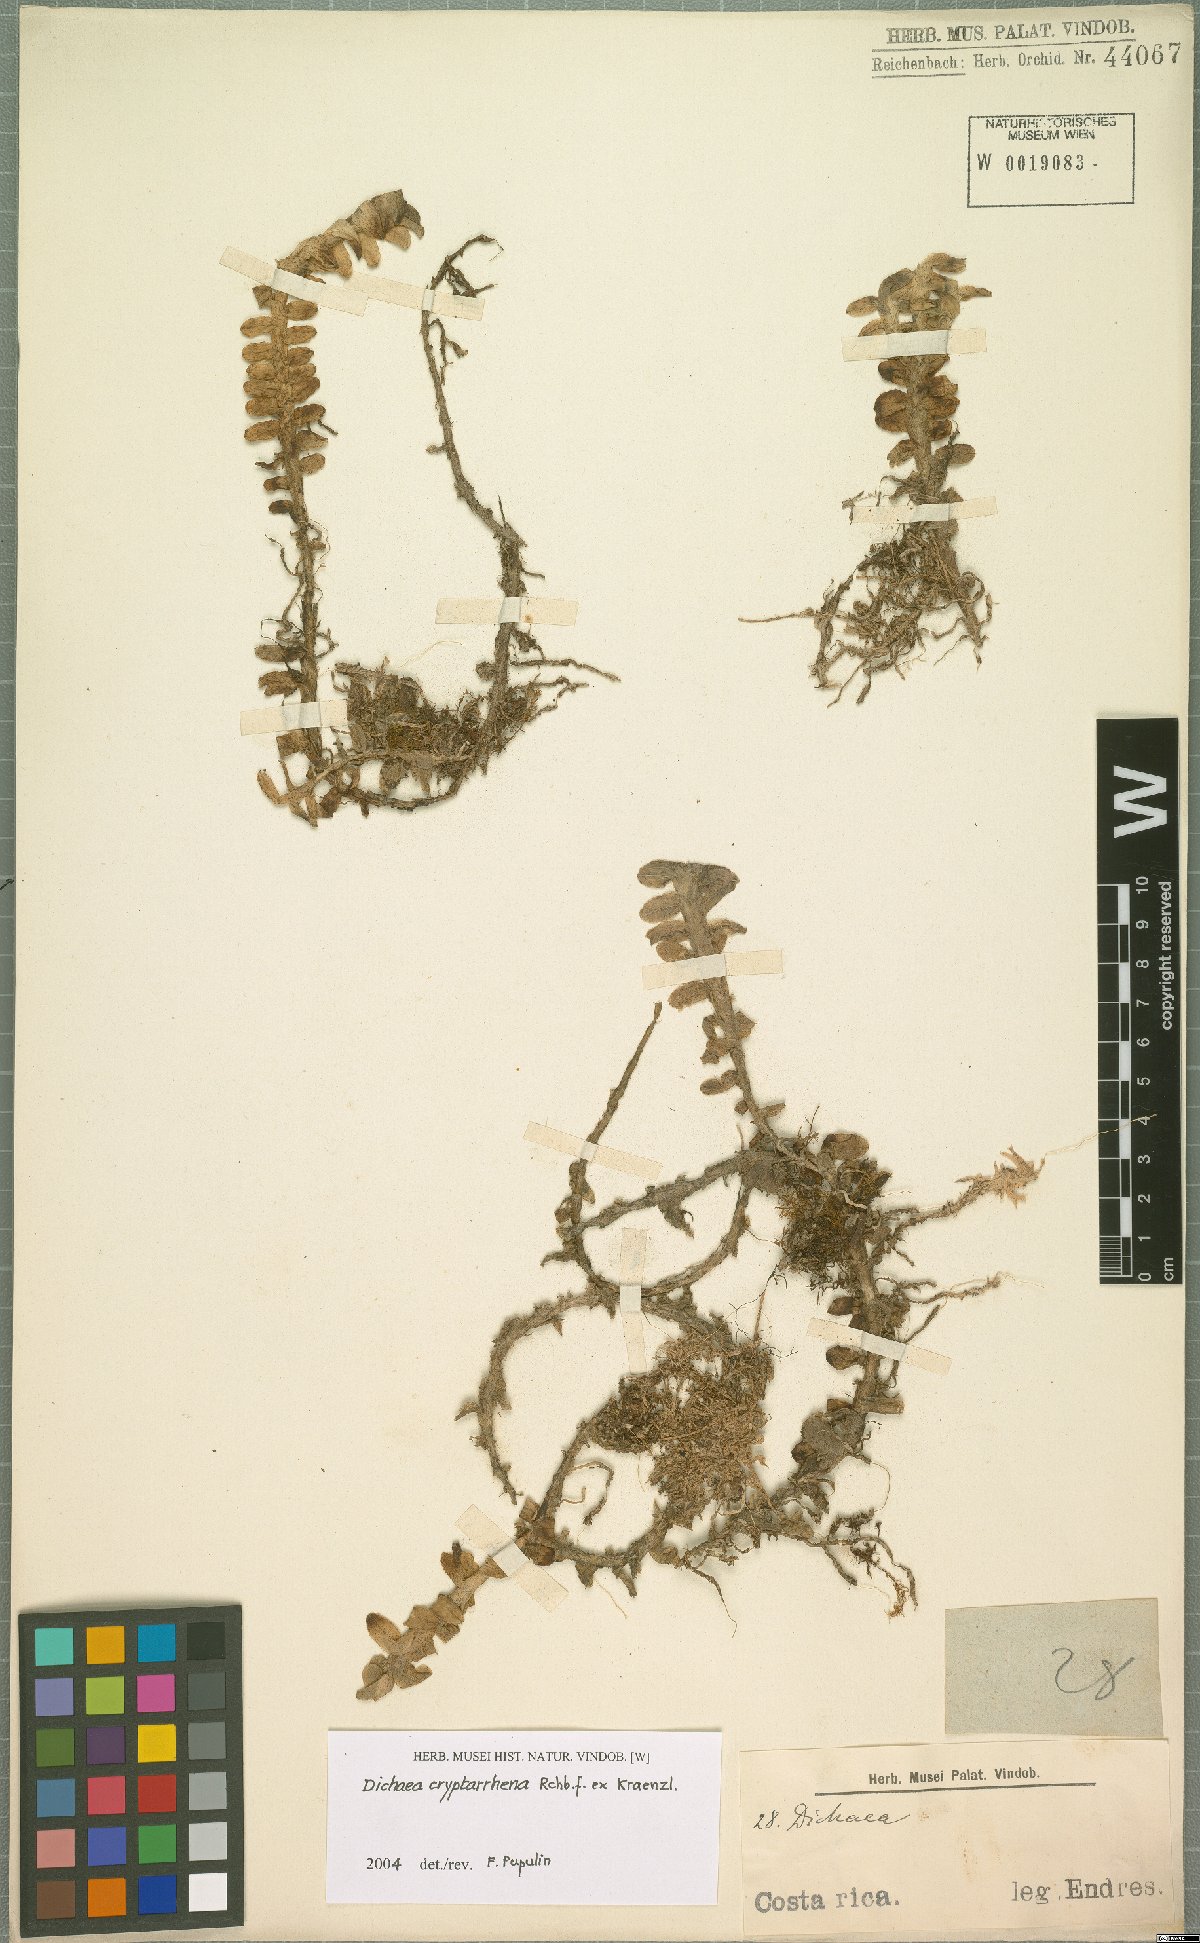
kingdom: Plantae
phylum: Tracheophyta
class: Liliopsida
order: Asparagales
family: Orchidaceae
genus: Dichaea
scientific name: Dichaea cryptarrhena
